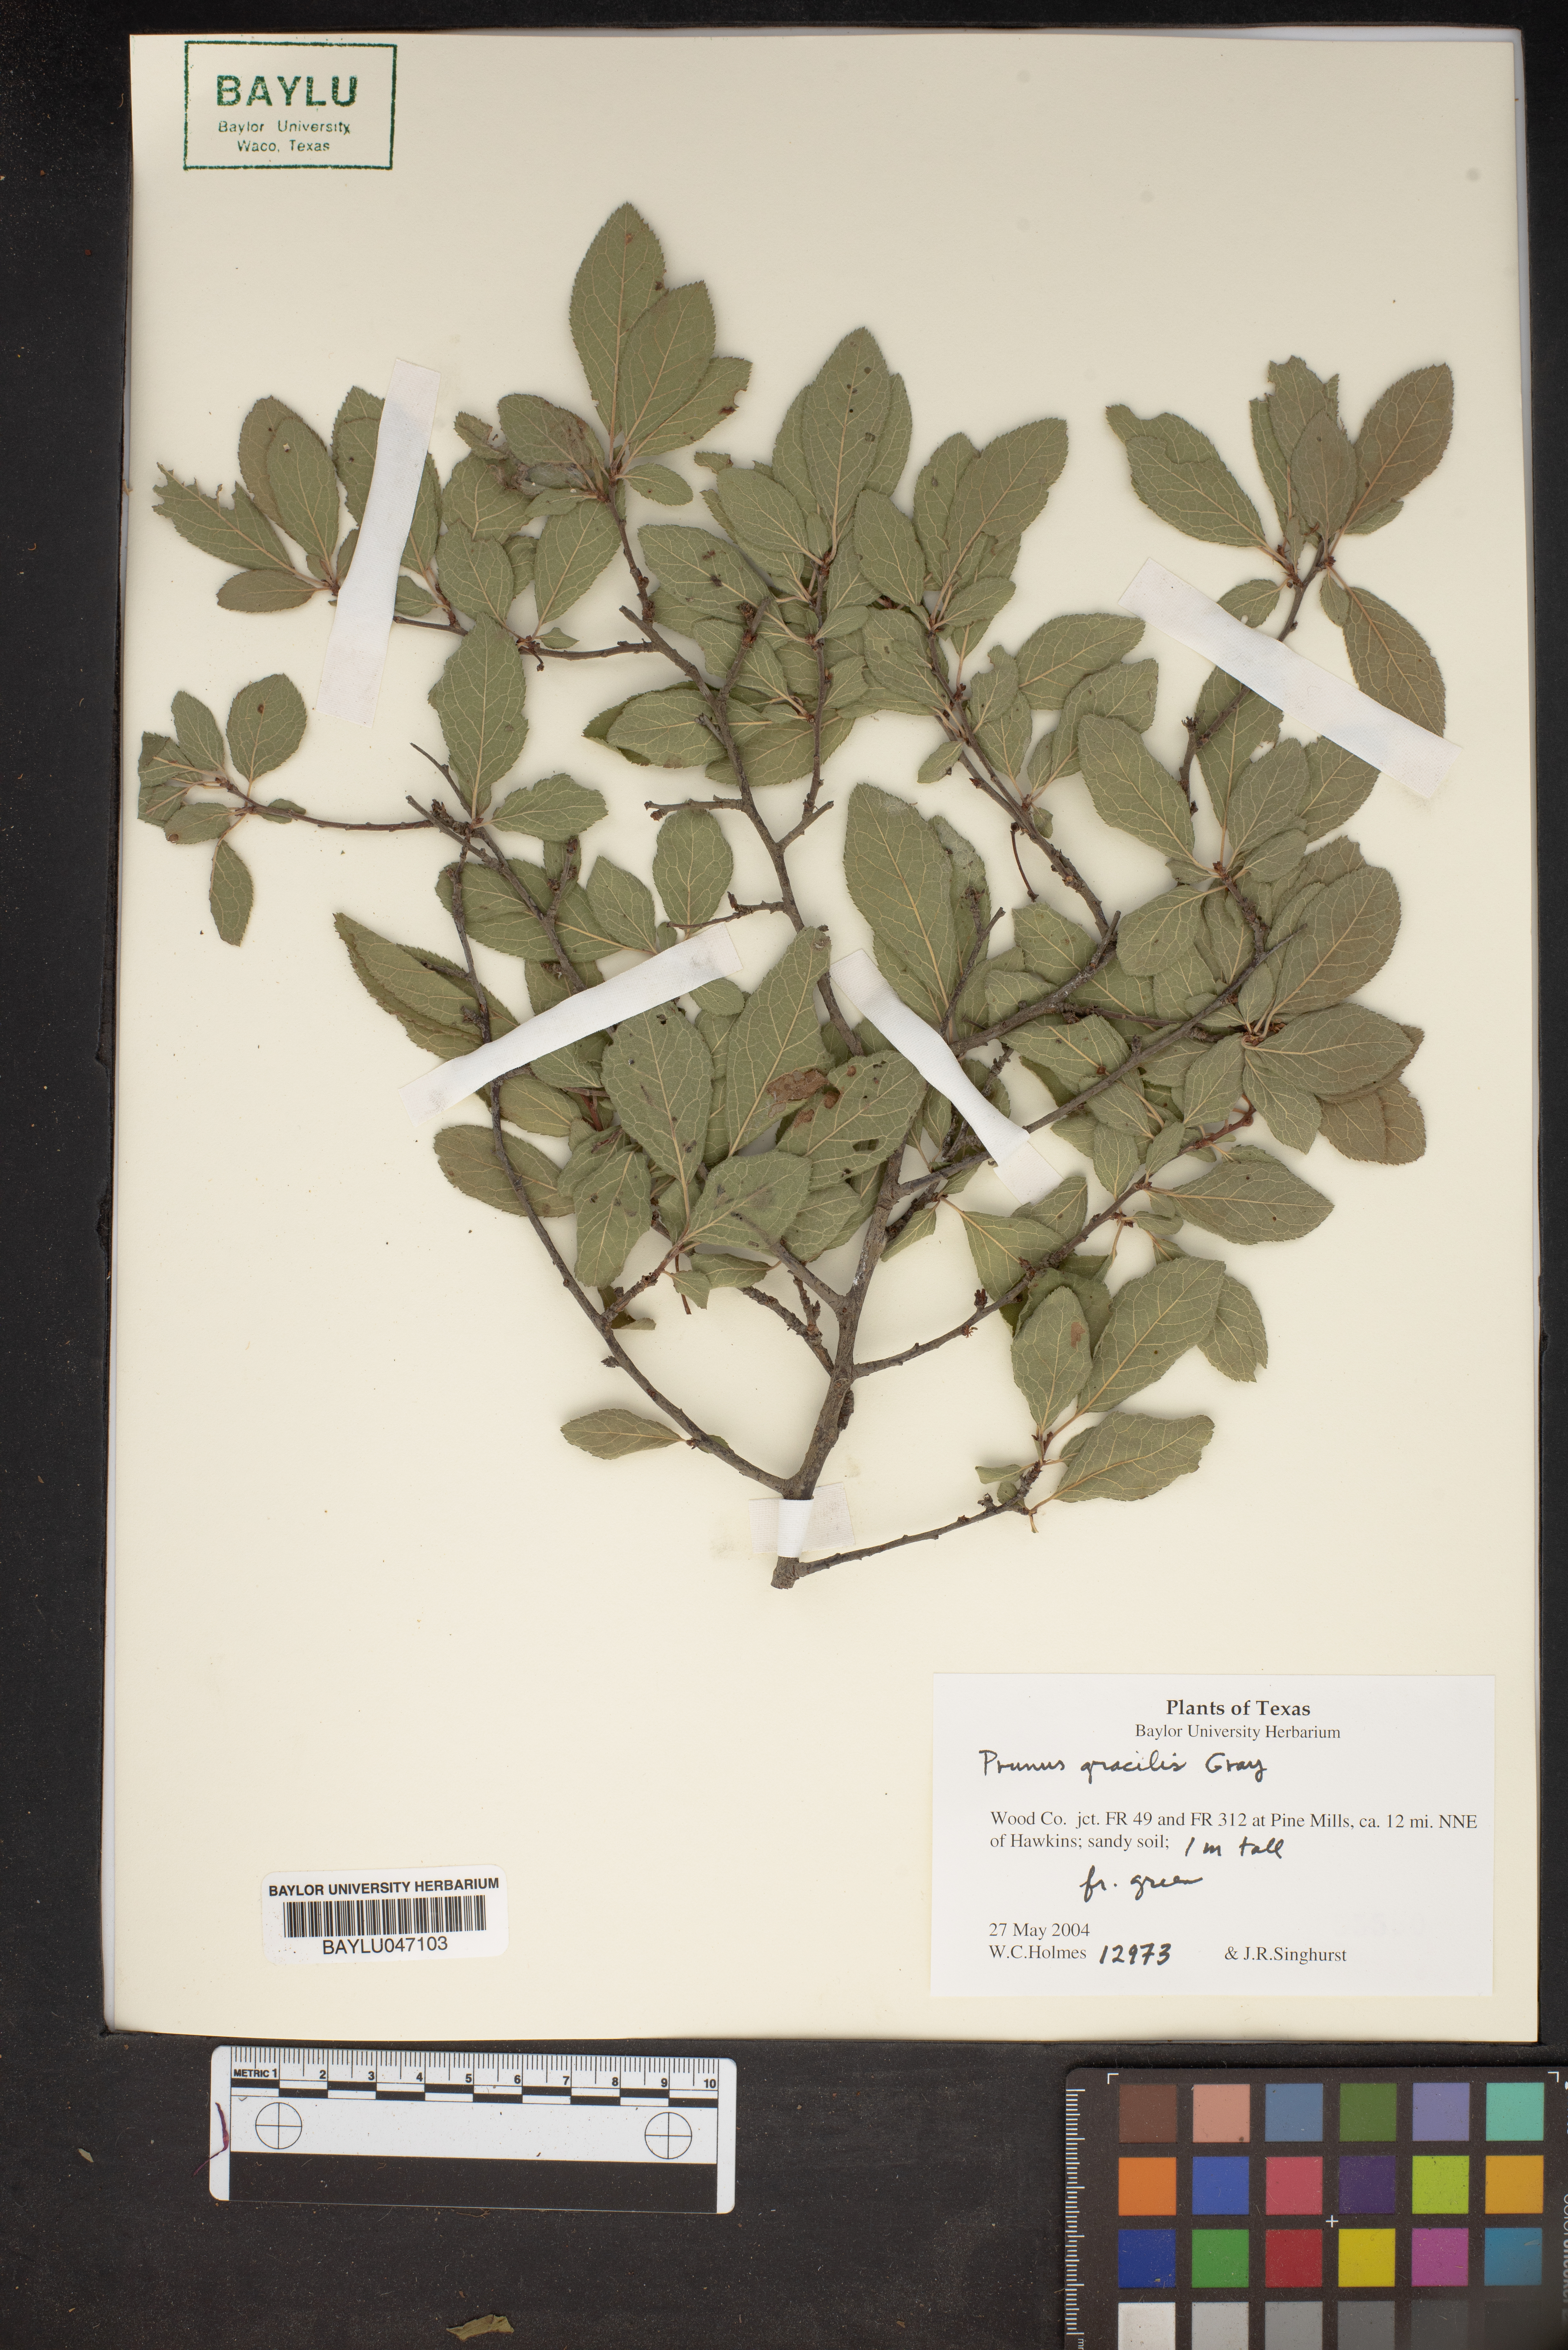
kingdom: Plantae
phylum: Tracheophyta
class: Magnoliopsida
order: Rosales
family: Rosaceae
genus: Prunus
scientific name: Prunus gracilis
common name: Oklahoma plum
